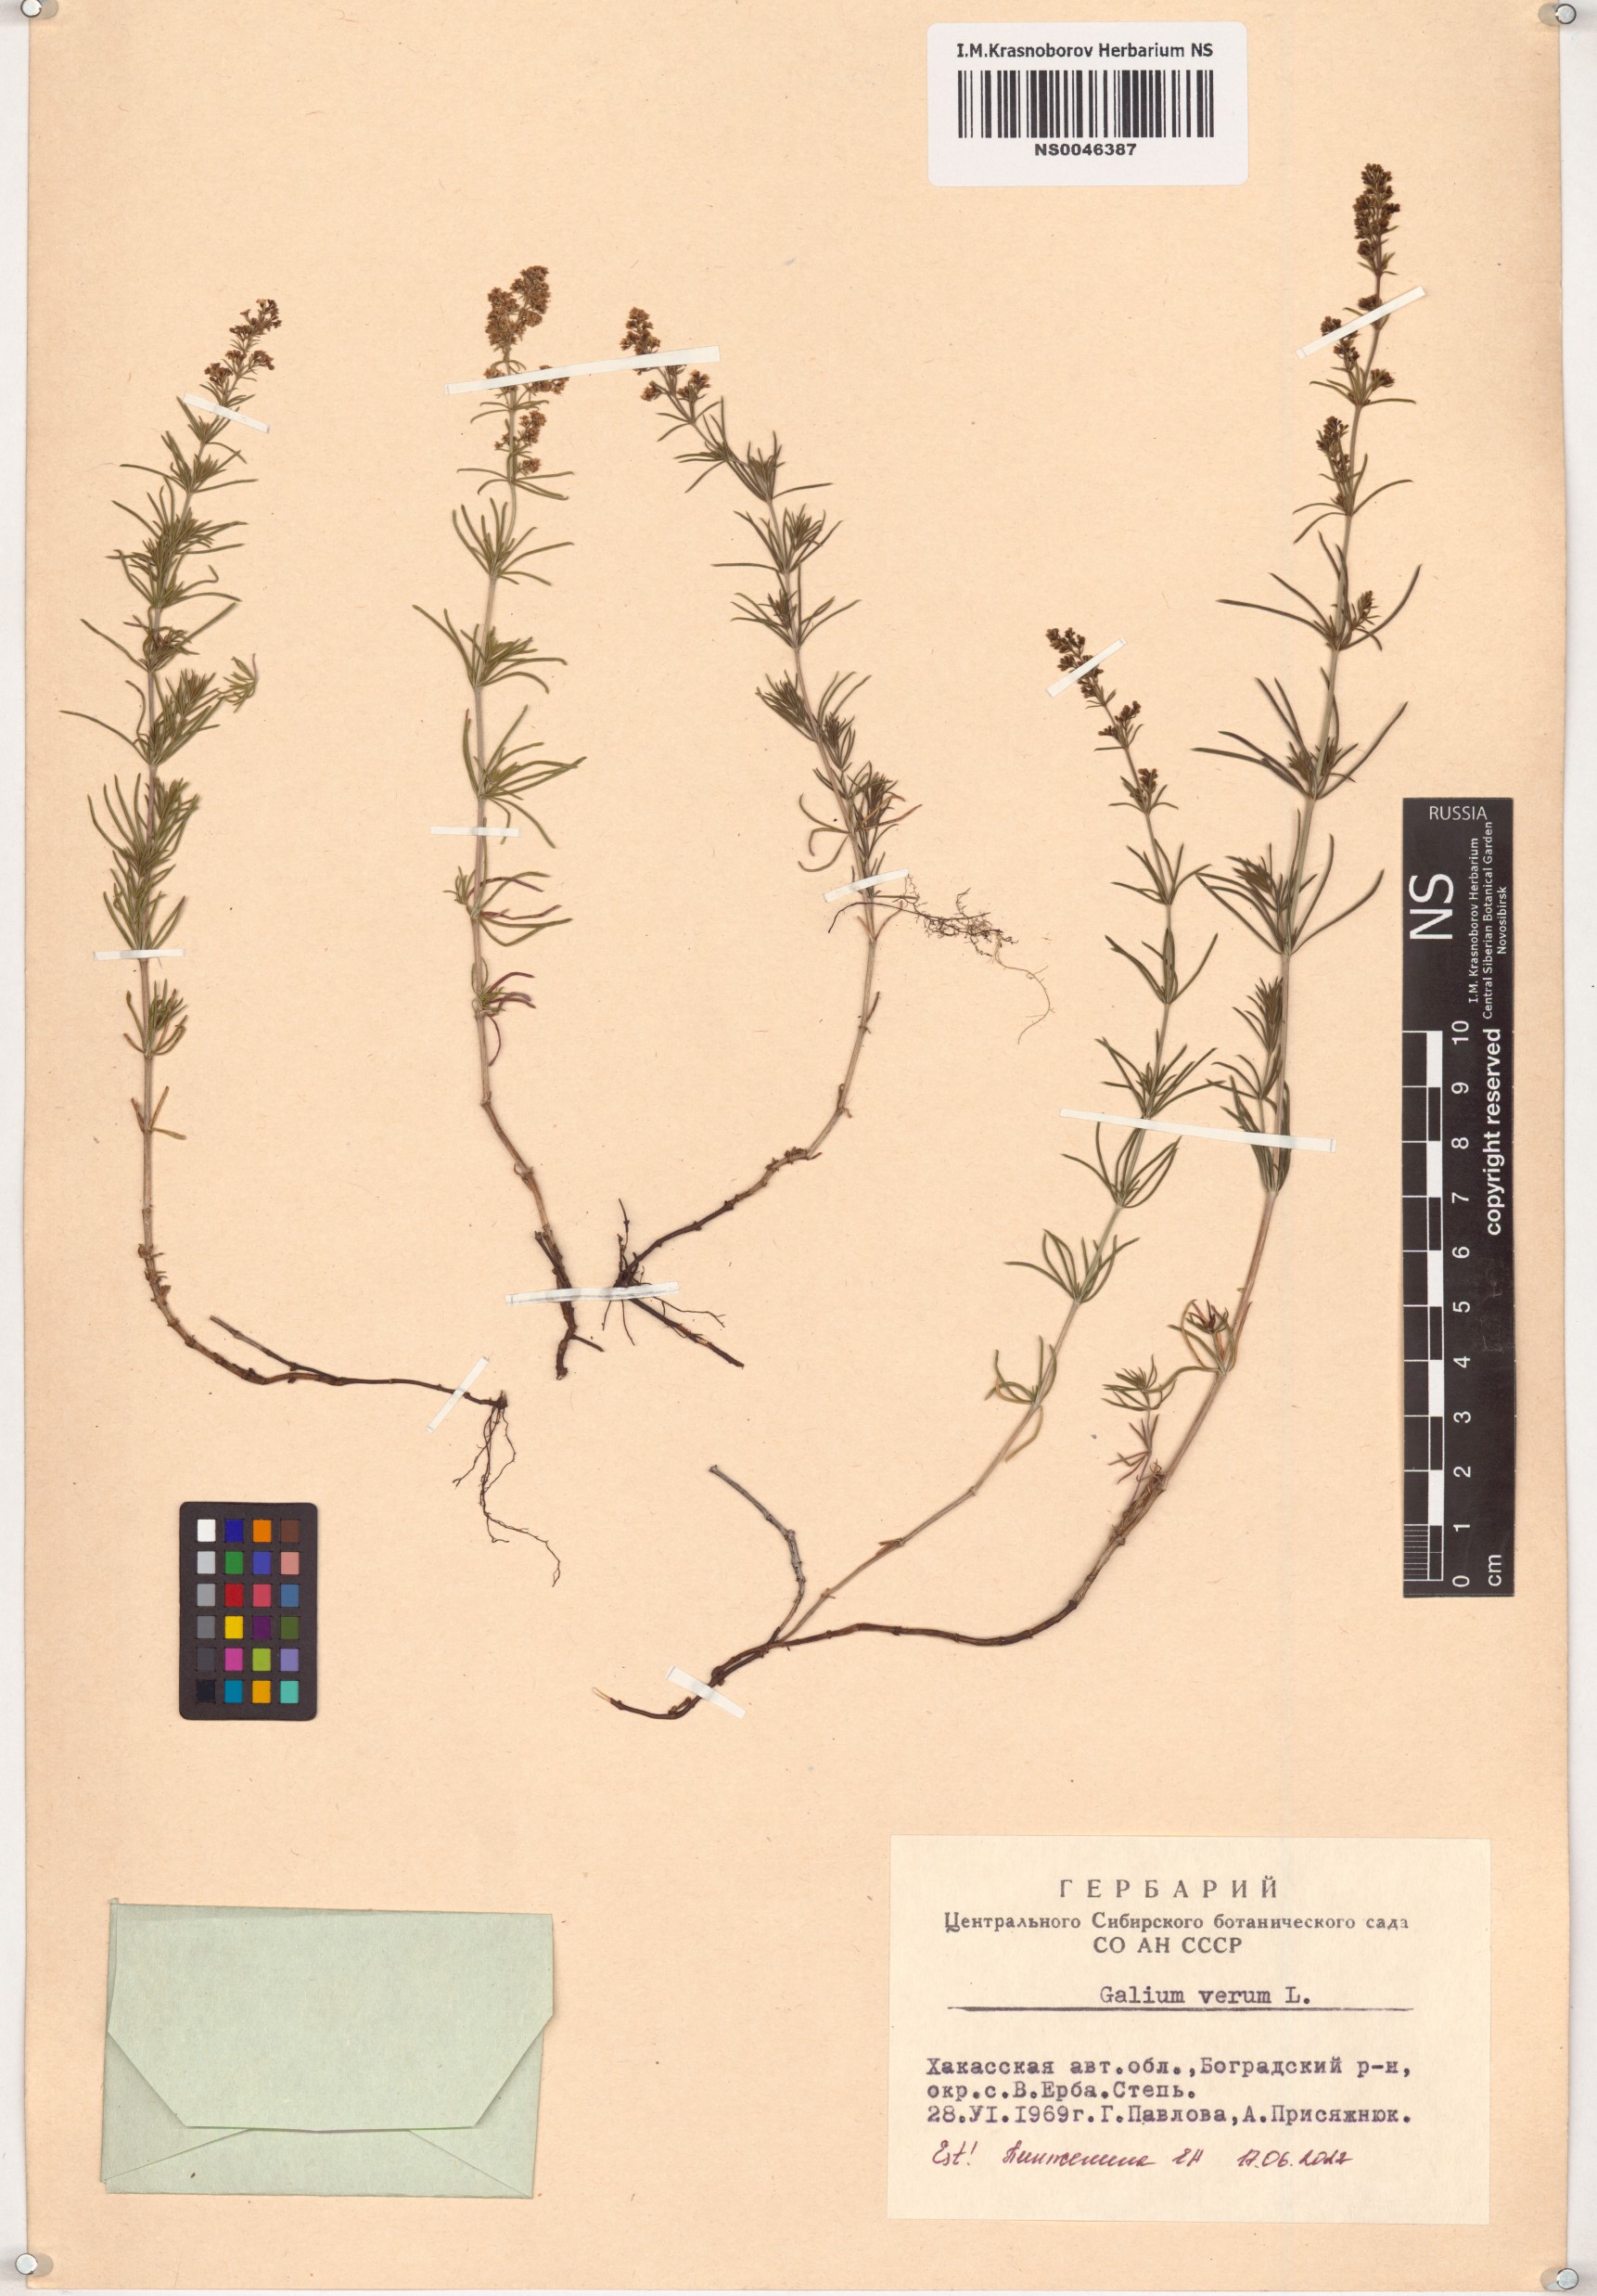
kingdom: Plantae
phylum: Tracheophyta
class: Magnoliopsida
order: Gentianales
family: Rubiaceae
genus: Galium
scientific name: Galium verum
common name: Lady's bedstraw
